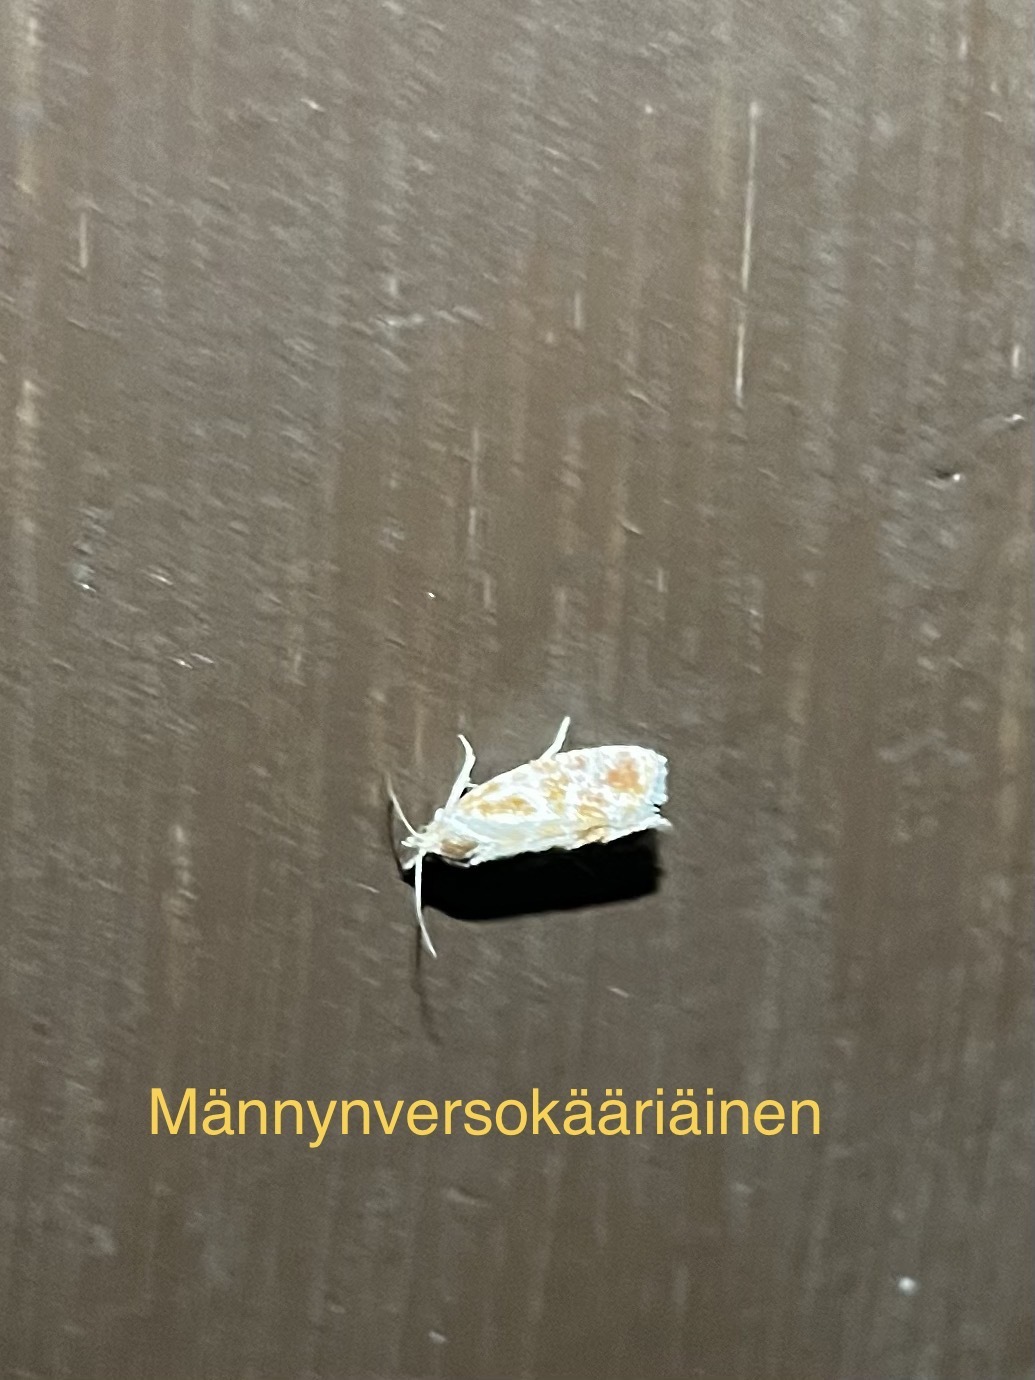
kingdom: Animalia
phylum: Arthropoda
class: Insecta
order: Lepidoptera
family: Tortricidae
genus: Rhyacionia
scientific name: Rhyacionia buoliana
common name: European pine shoot moth
